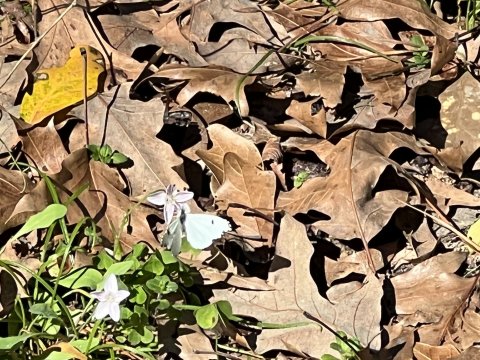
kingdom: Animalia
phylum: Arthropoda
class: Insecta
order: Lepidoptera
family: Pieridae
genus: Anthocharis
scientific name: Anthocharis midea
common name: Falcate Orangetip
